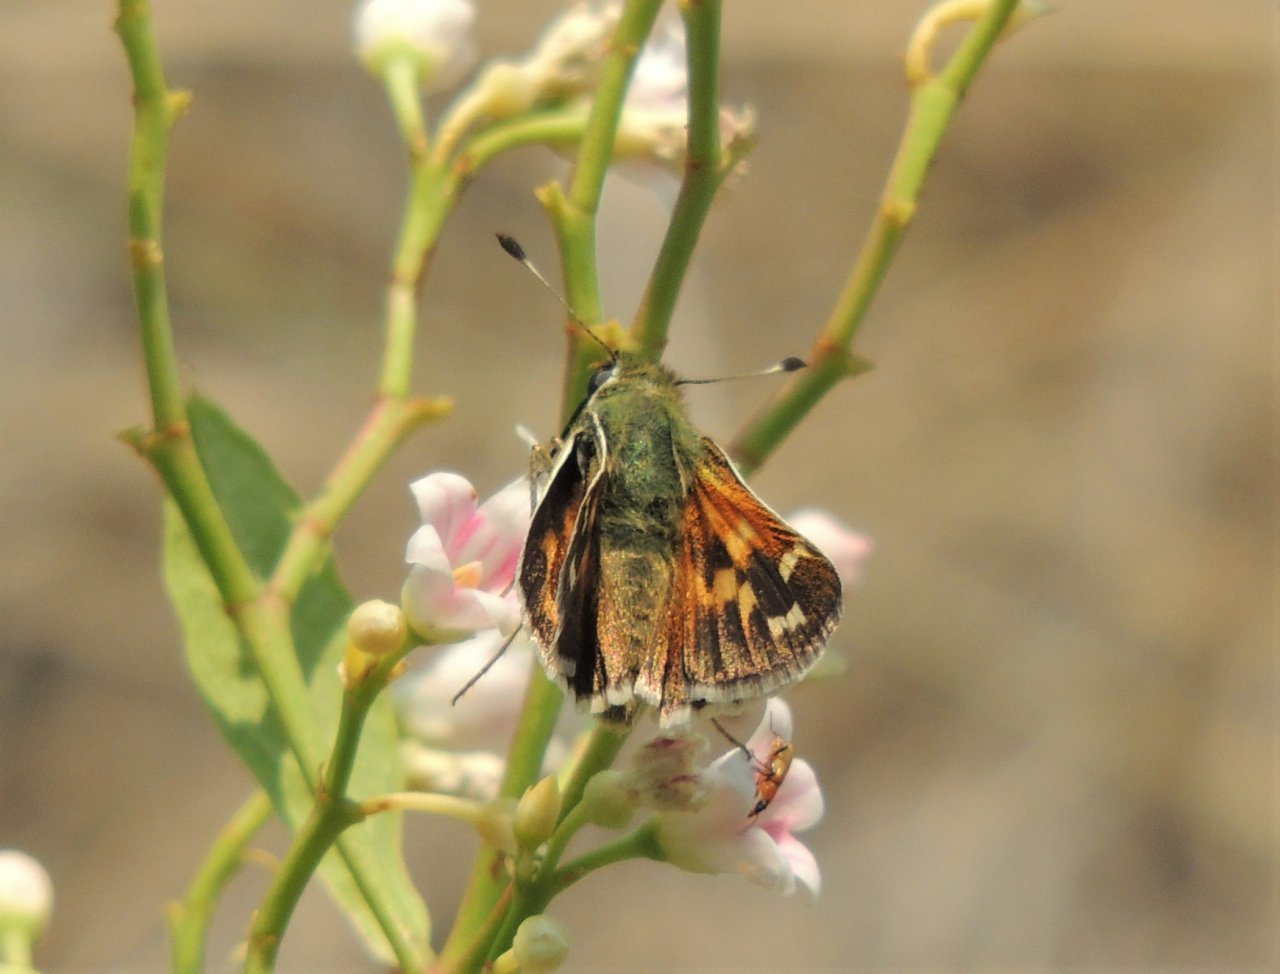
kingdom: Animalia
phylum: Arthropoda
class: Insecta
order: Lepidoptera
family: Hesperiidae
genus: Hesperia
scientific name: Hesperia juba
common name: Juba Skipper
